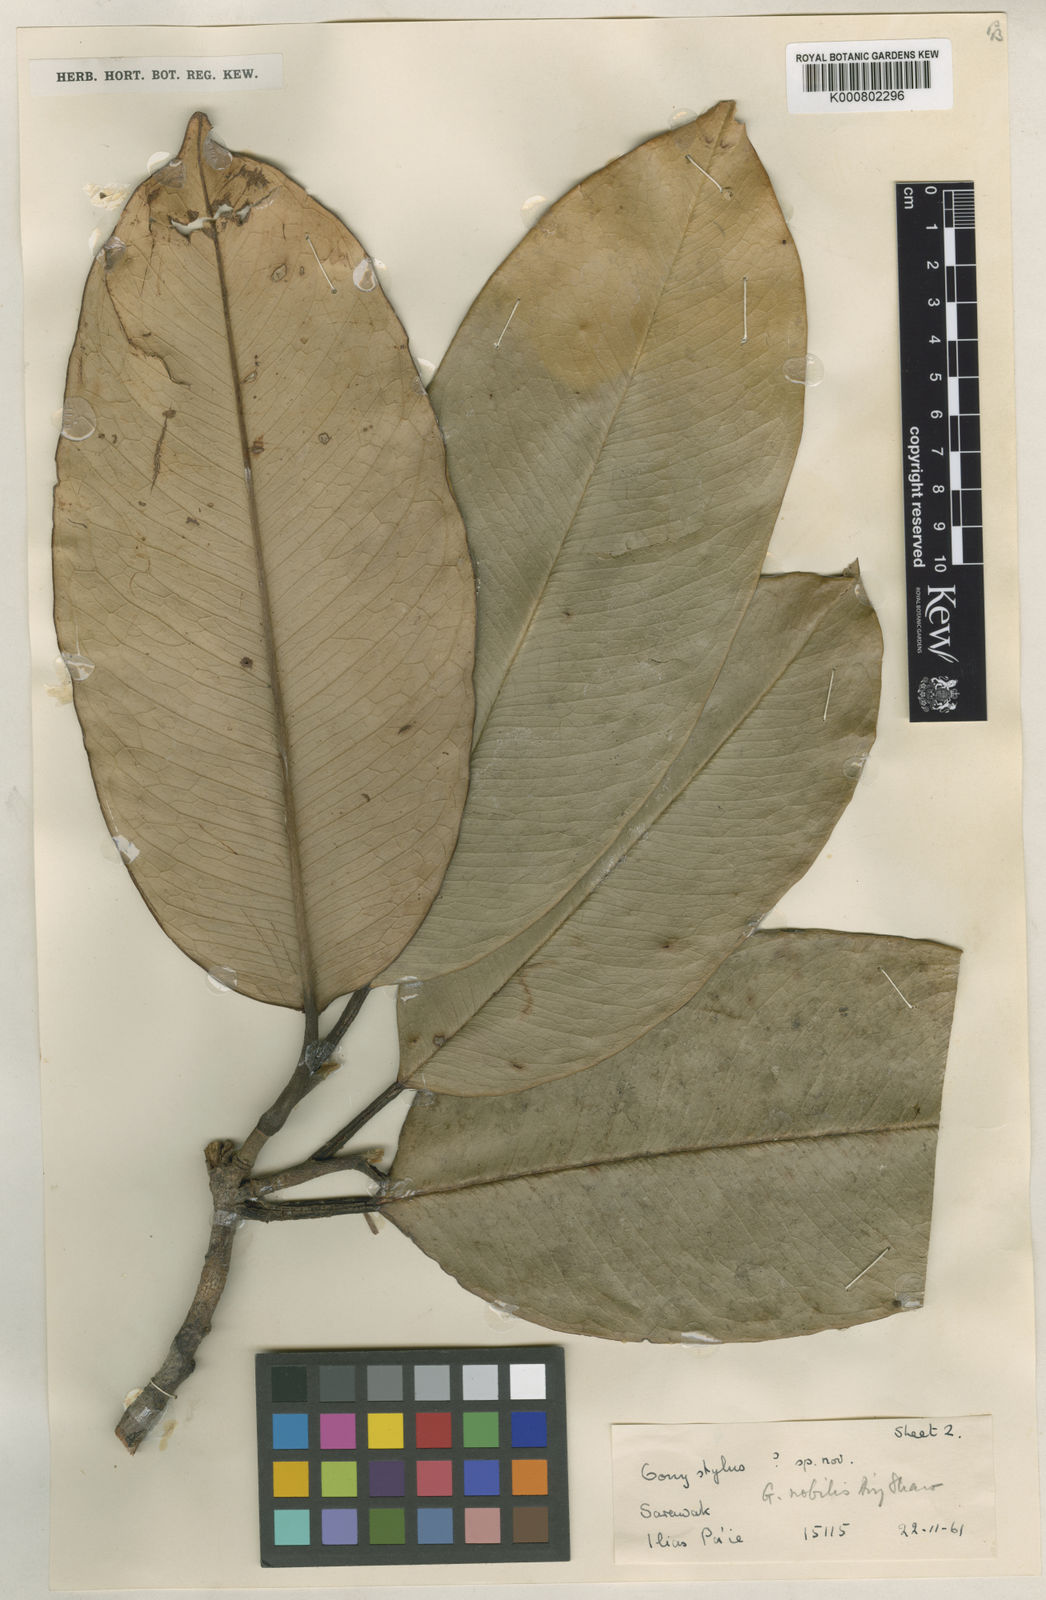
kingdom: Plantae
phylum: Tracheophyta
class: Magnoliopsida
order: Malvales
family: Thymelaeaceae
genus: Gonystylus
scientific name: Gonystylus nobilis
